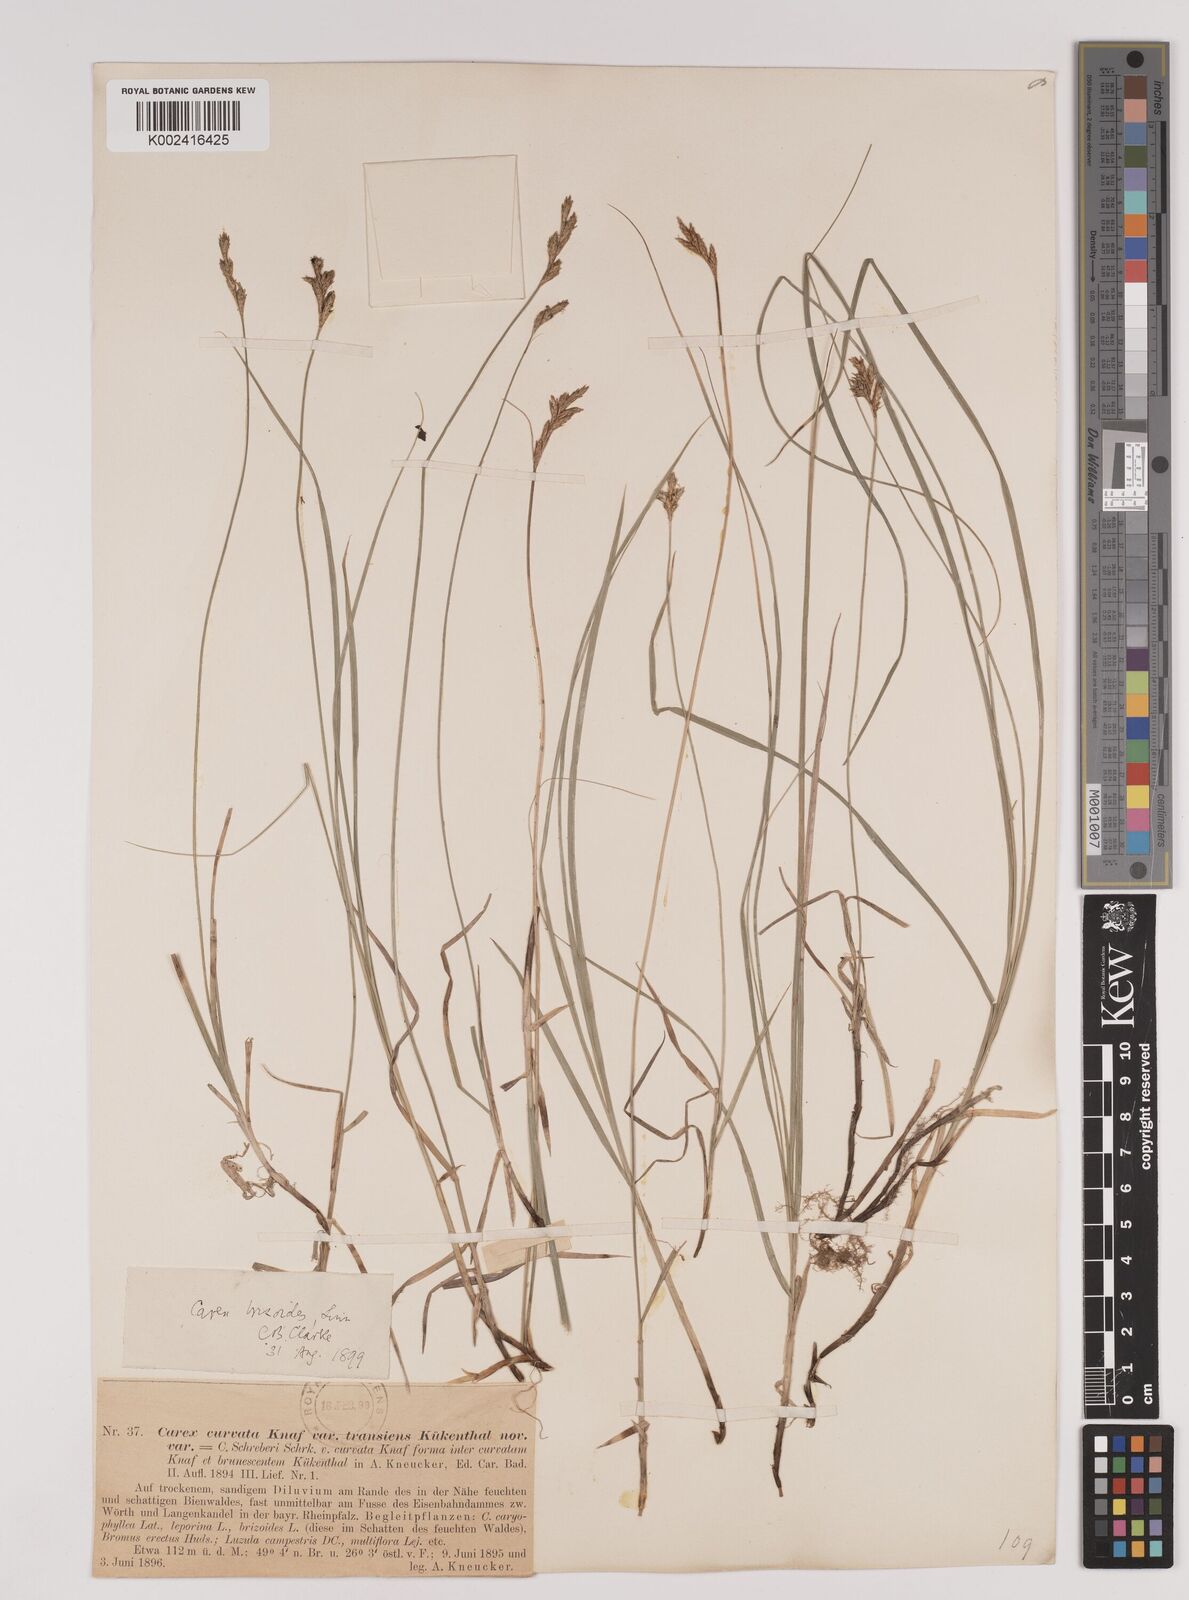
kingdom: Plantae
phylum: Tracheophyta
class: Liliopsida
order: Poales
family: Cyperaceae
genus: Carex
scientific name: Carex brizoides
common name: Quaking-grass sedge
